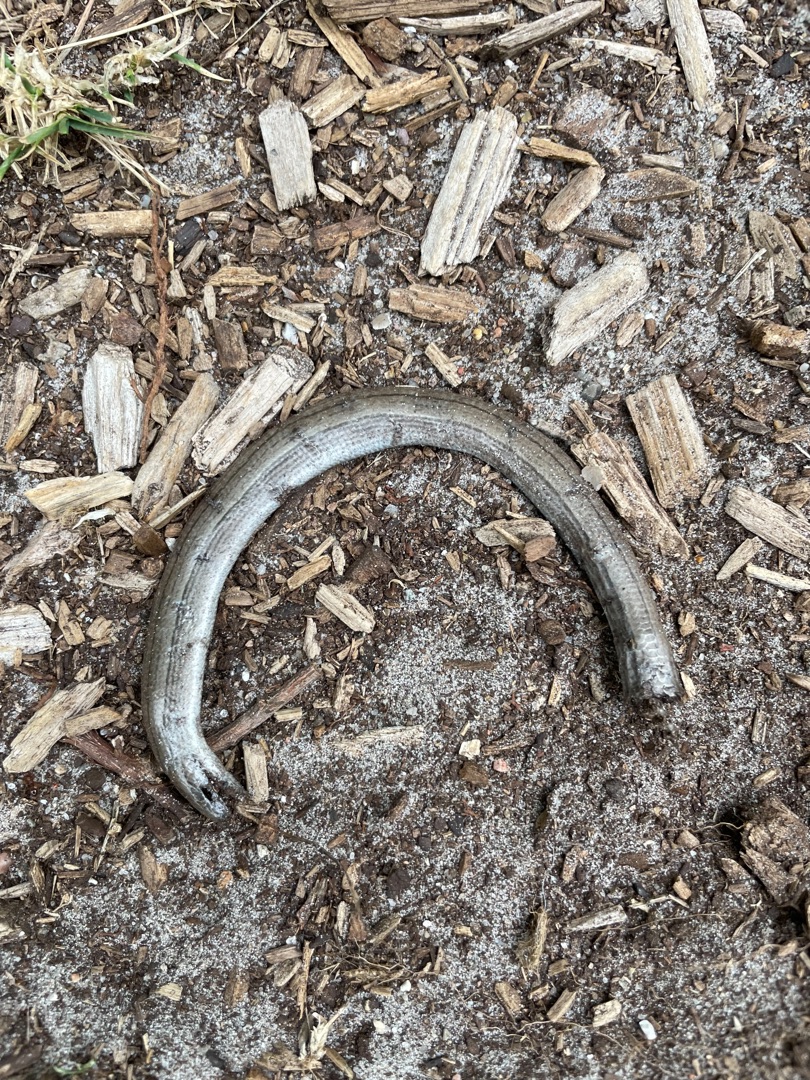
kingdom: Animalia
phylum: Chordata
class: Squamata
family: Anguidae
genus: Anguis
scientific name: Anguis fragilis
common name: Stålorm
